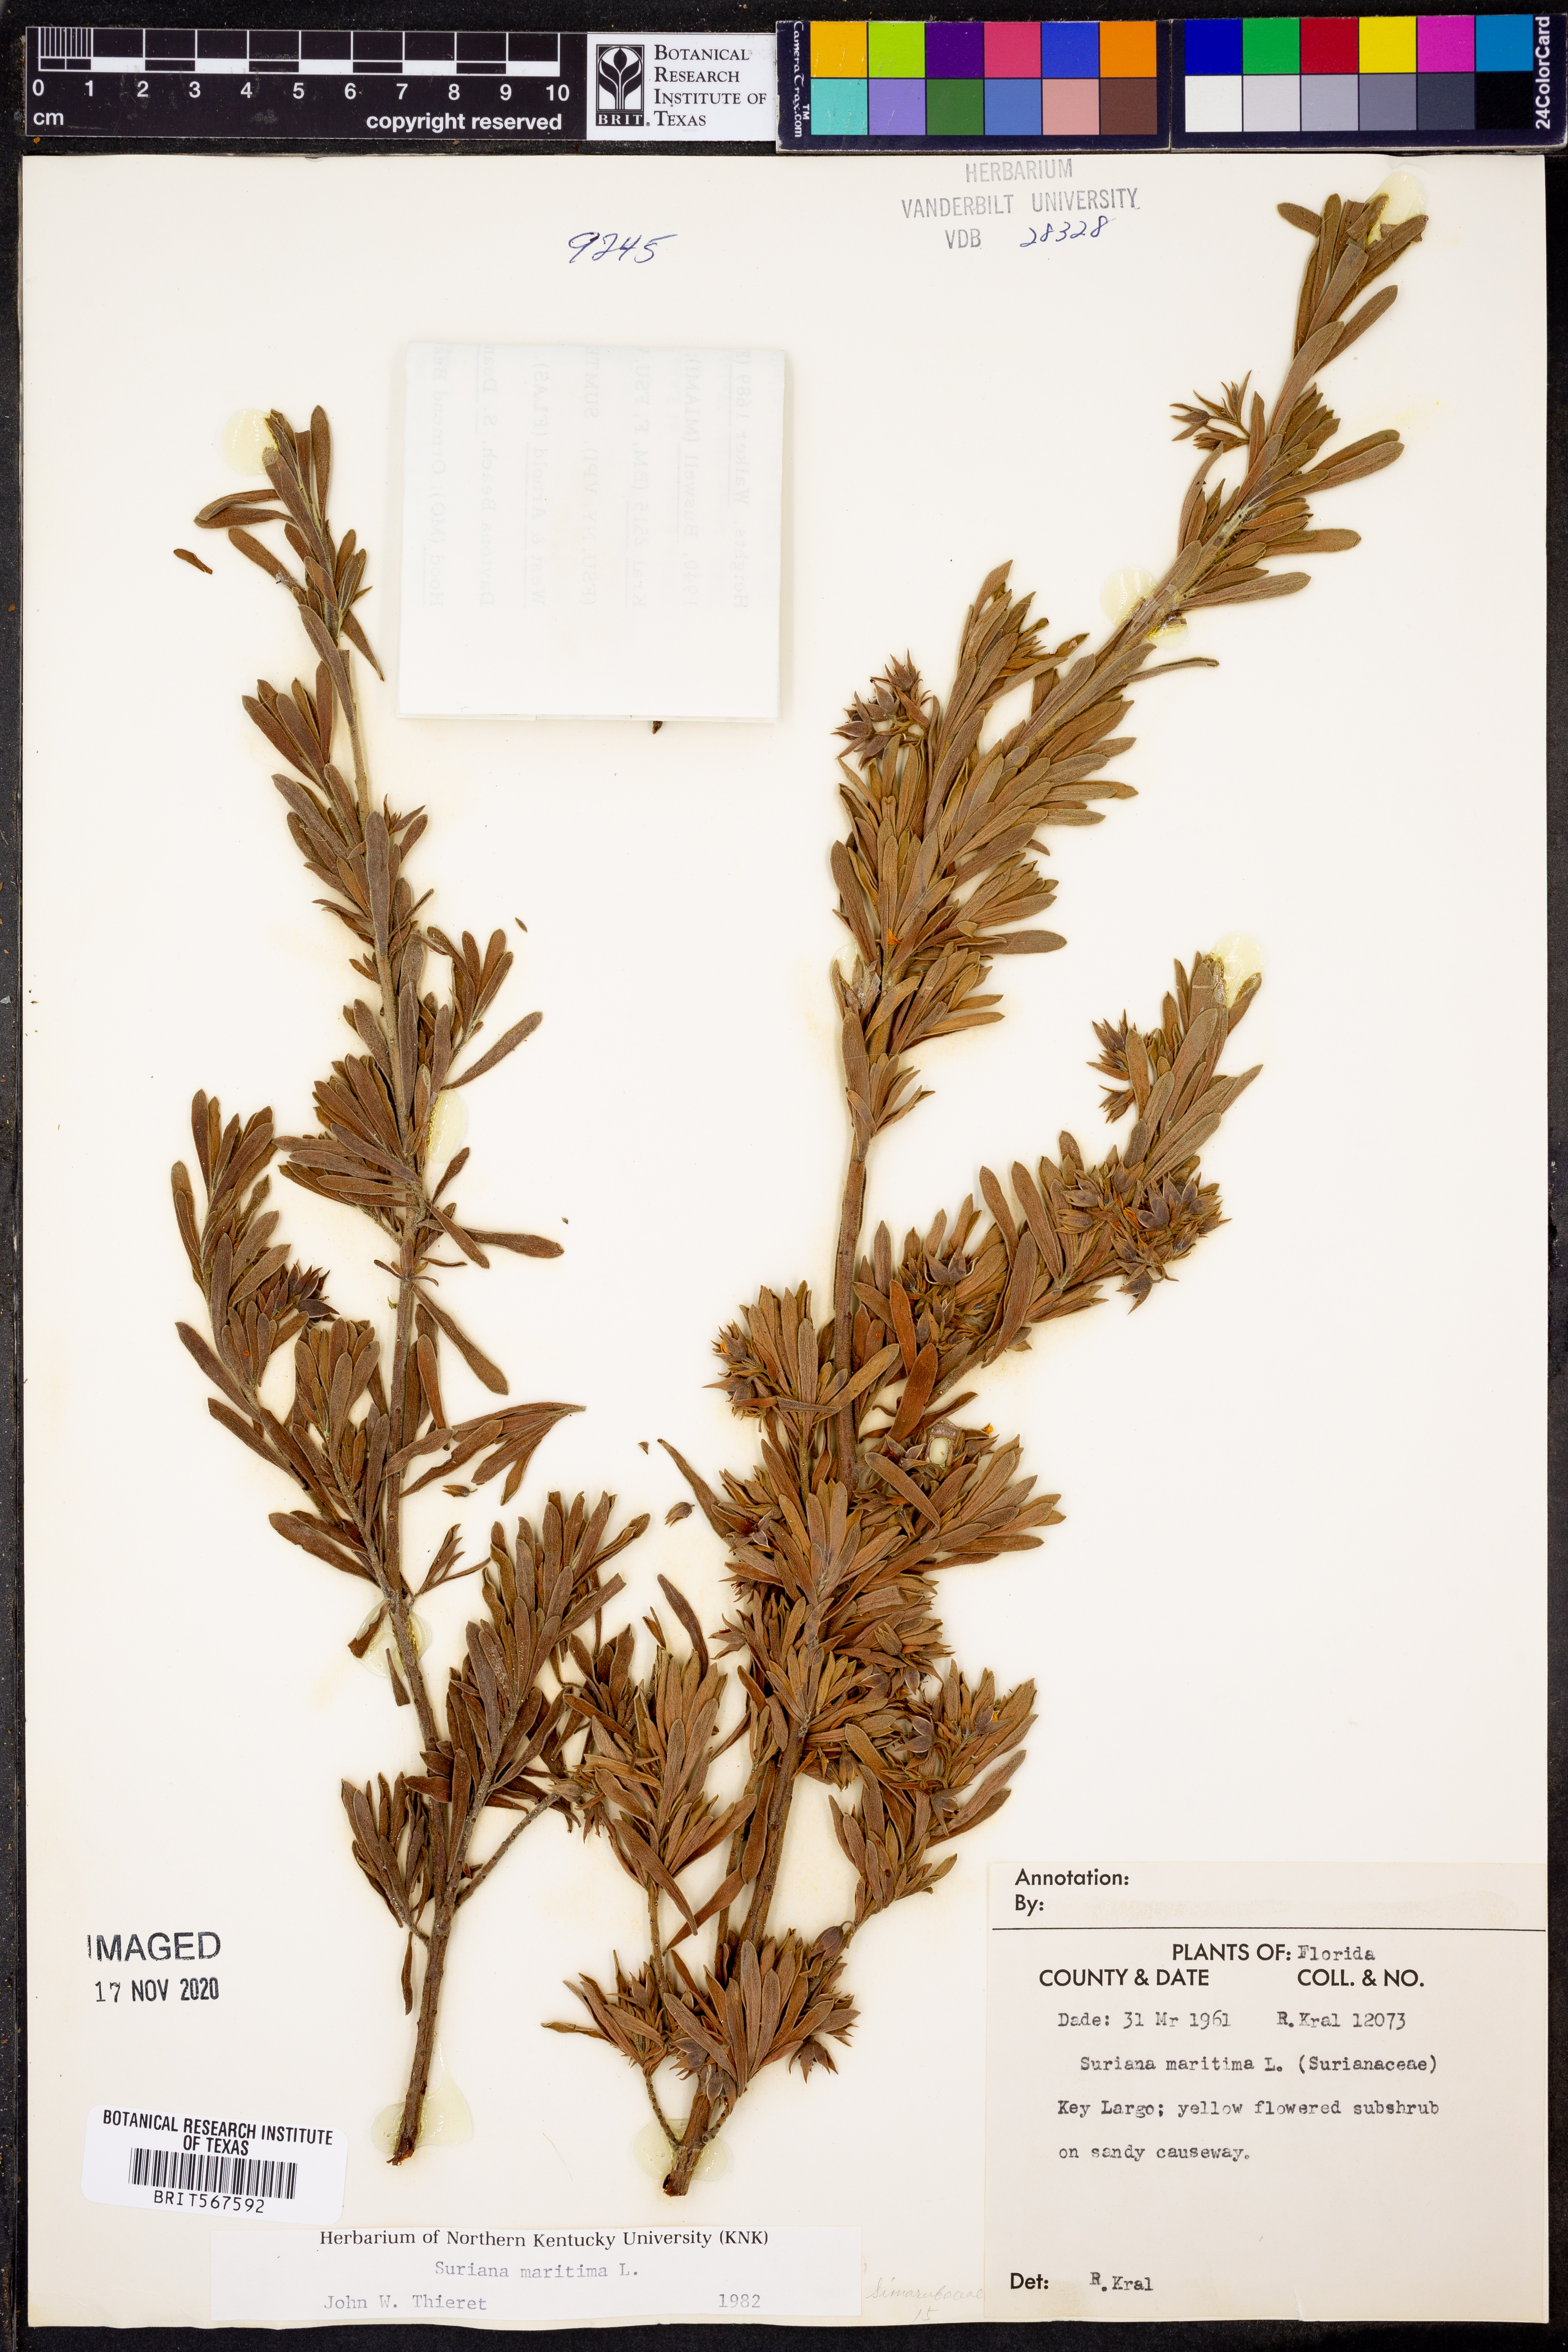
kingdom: Plantae
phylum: Tracheophyta
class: Magnoliopsida
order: Fabales
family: Surianaceae
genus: Suriana
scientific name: Suriana maritima
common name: Bay-cedar
